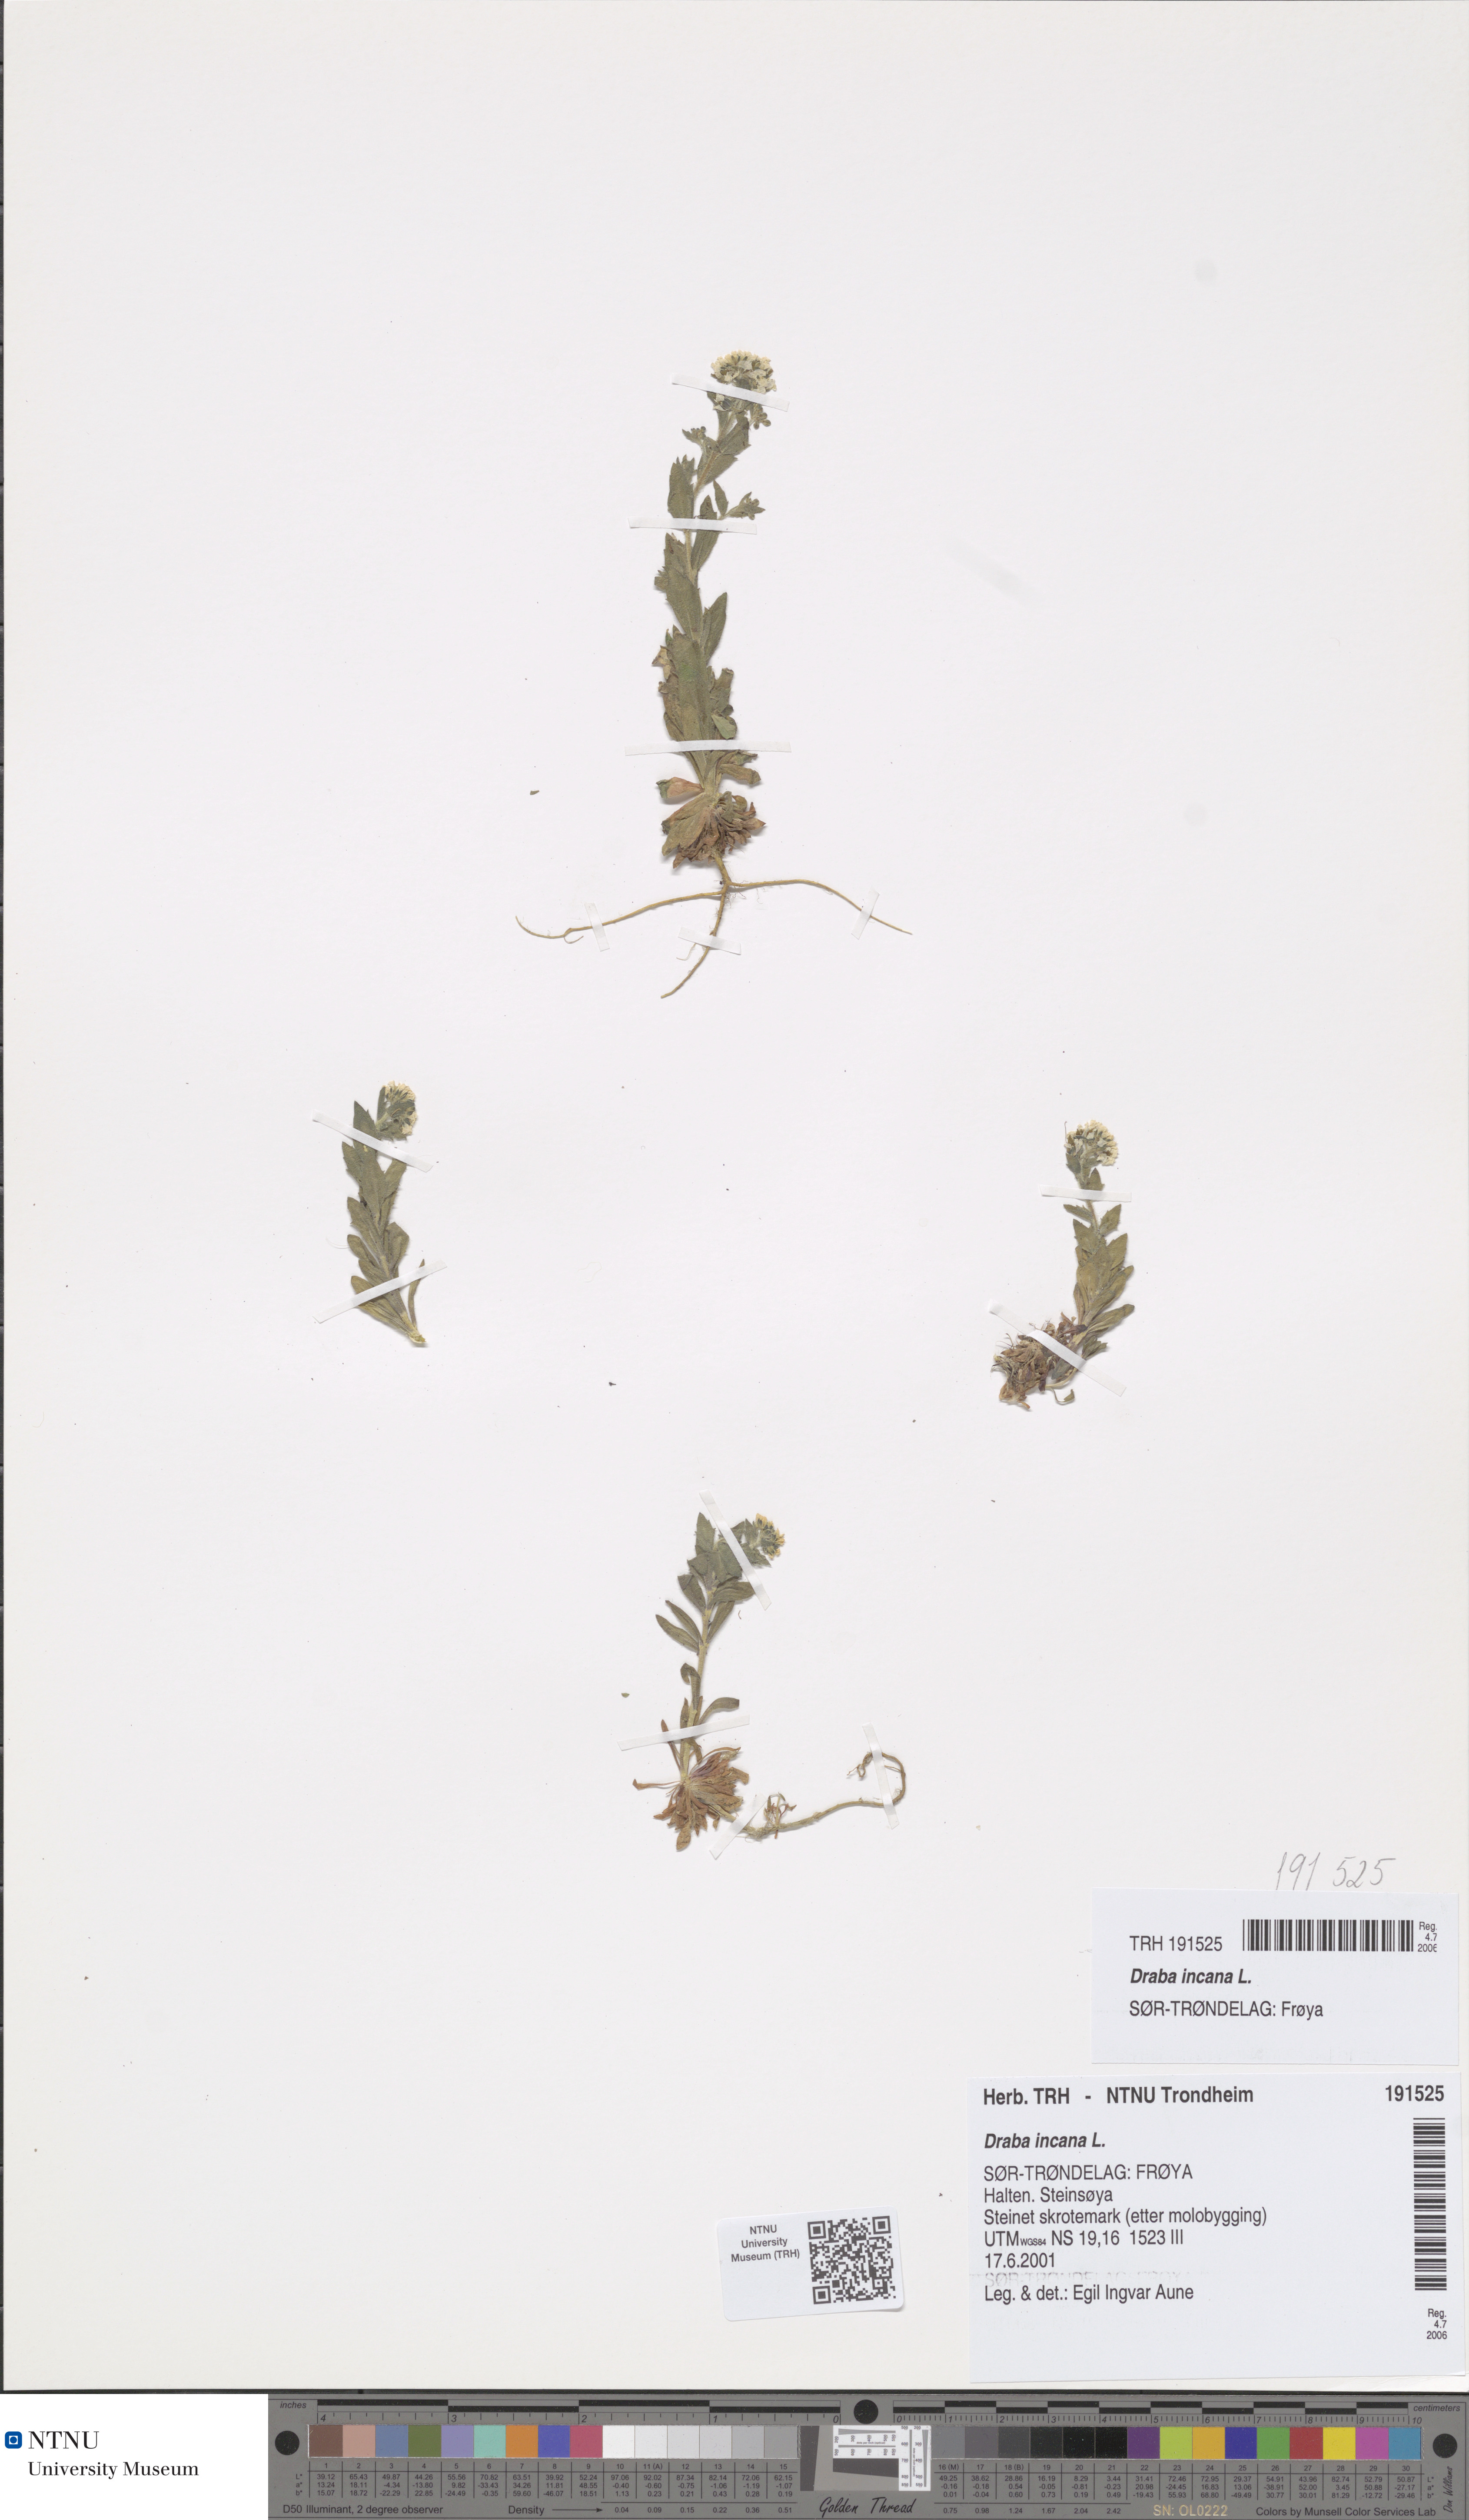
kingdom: Plantae
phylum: Tracheophyta
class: Magnoliopsida
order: Brassicales
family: Brassicaceae
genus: Draba
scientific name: Draba incana
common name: Hoary whitlow-grass
